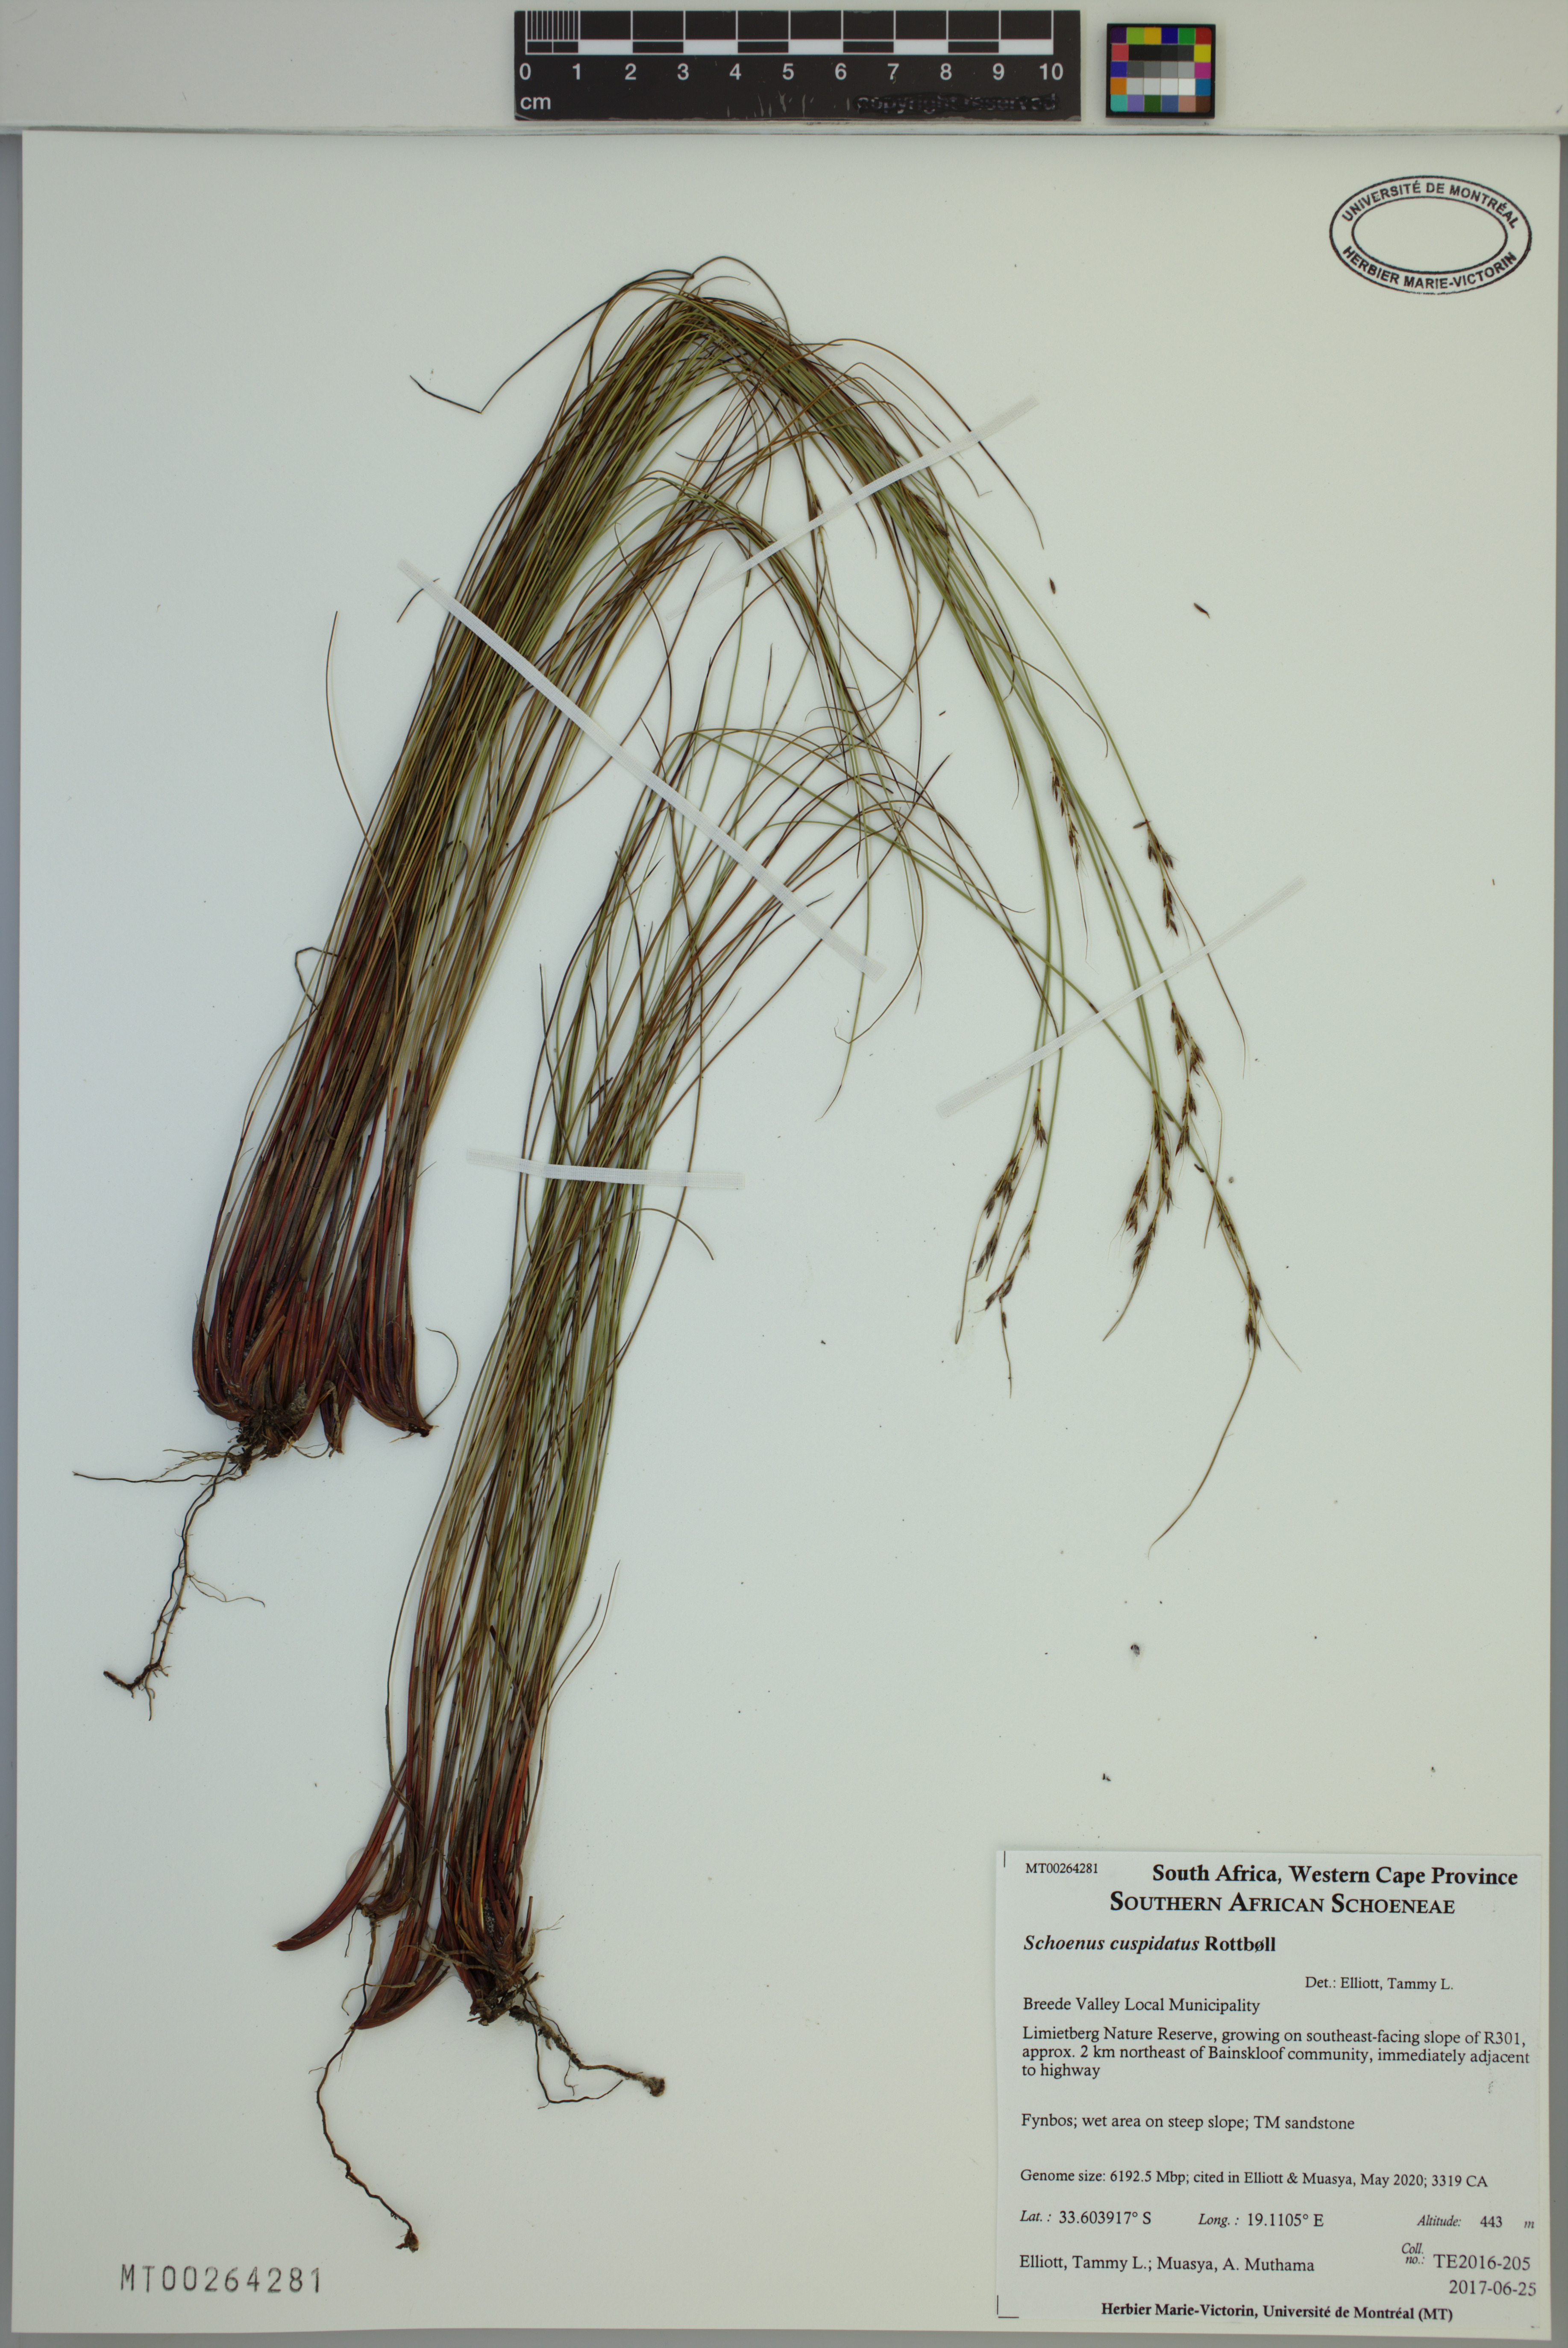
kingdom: Plantae
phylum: Tracheophyta
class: Liliopsida
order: Poales
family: Cyperaceae
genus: Schoenus
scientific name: Schoenus cuspidatus
